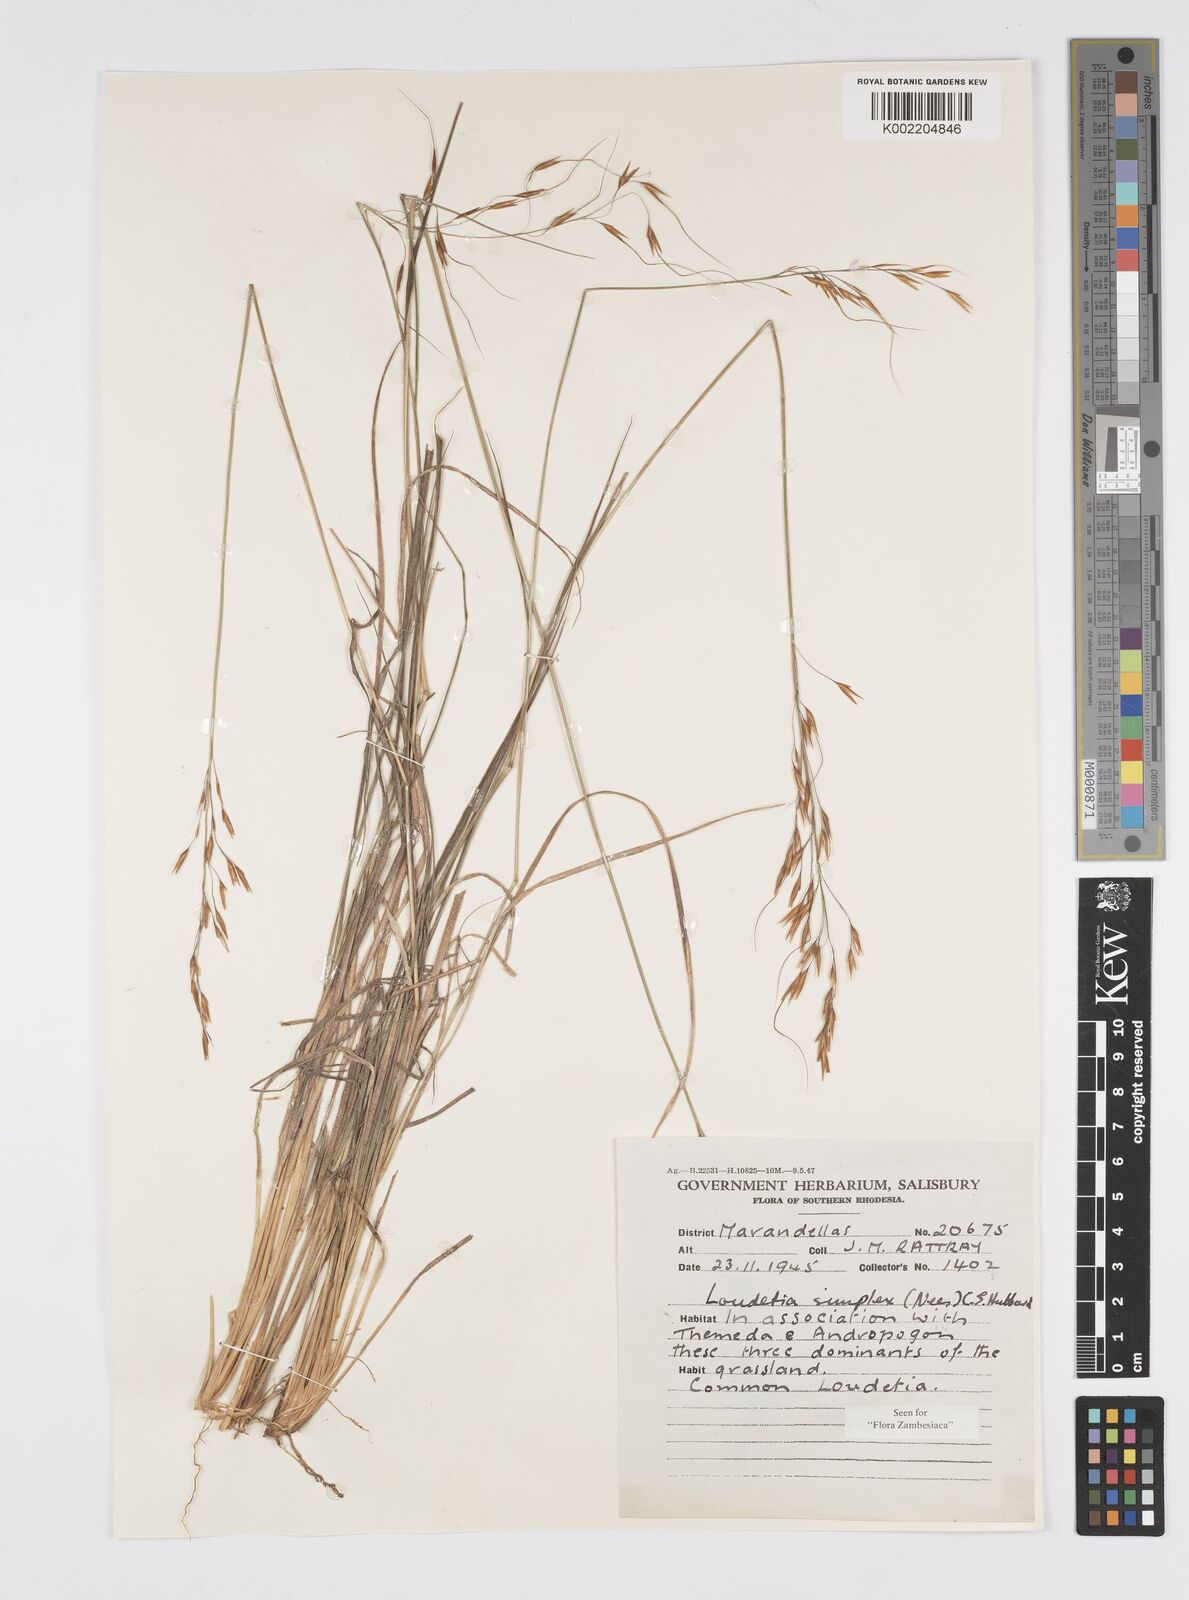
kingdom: Plantae
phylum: Tracheophyta
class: Liliopsida
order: Poales
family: Poaceae
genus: Loudetia
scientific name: Loudetia simplex
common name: Common russet grass
